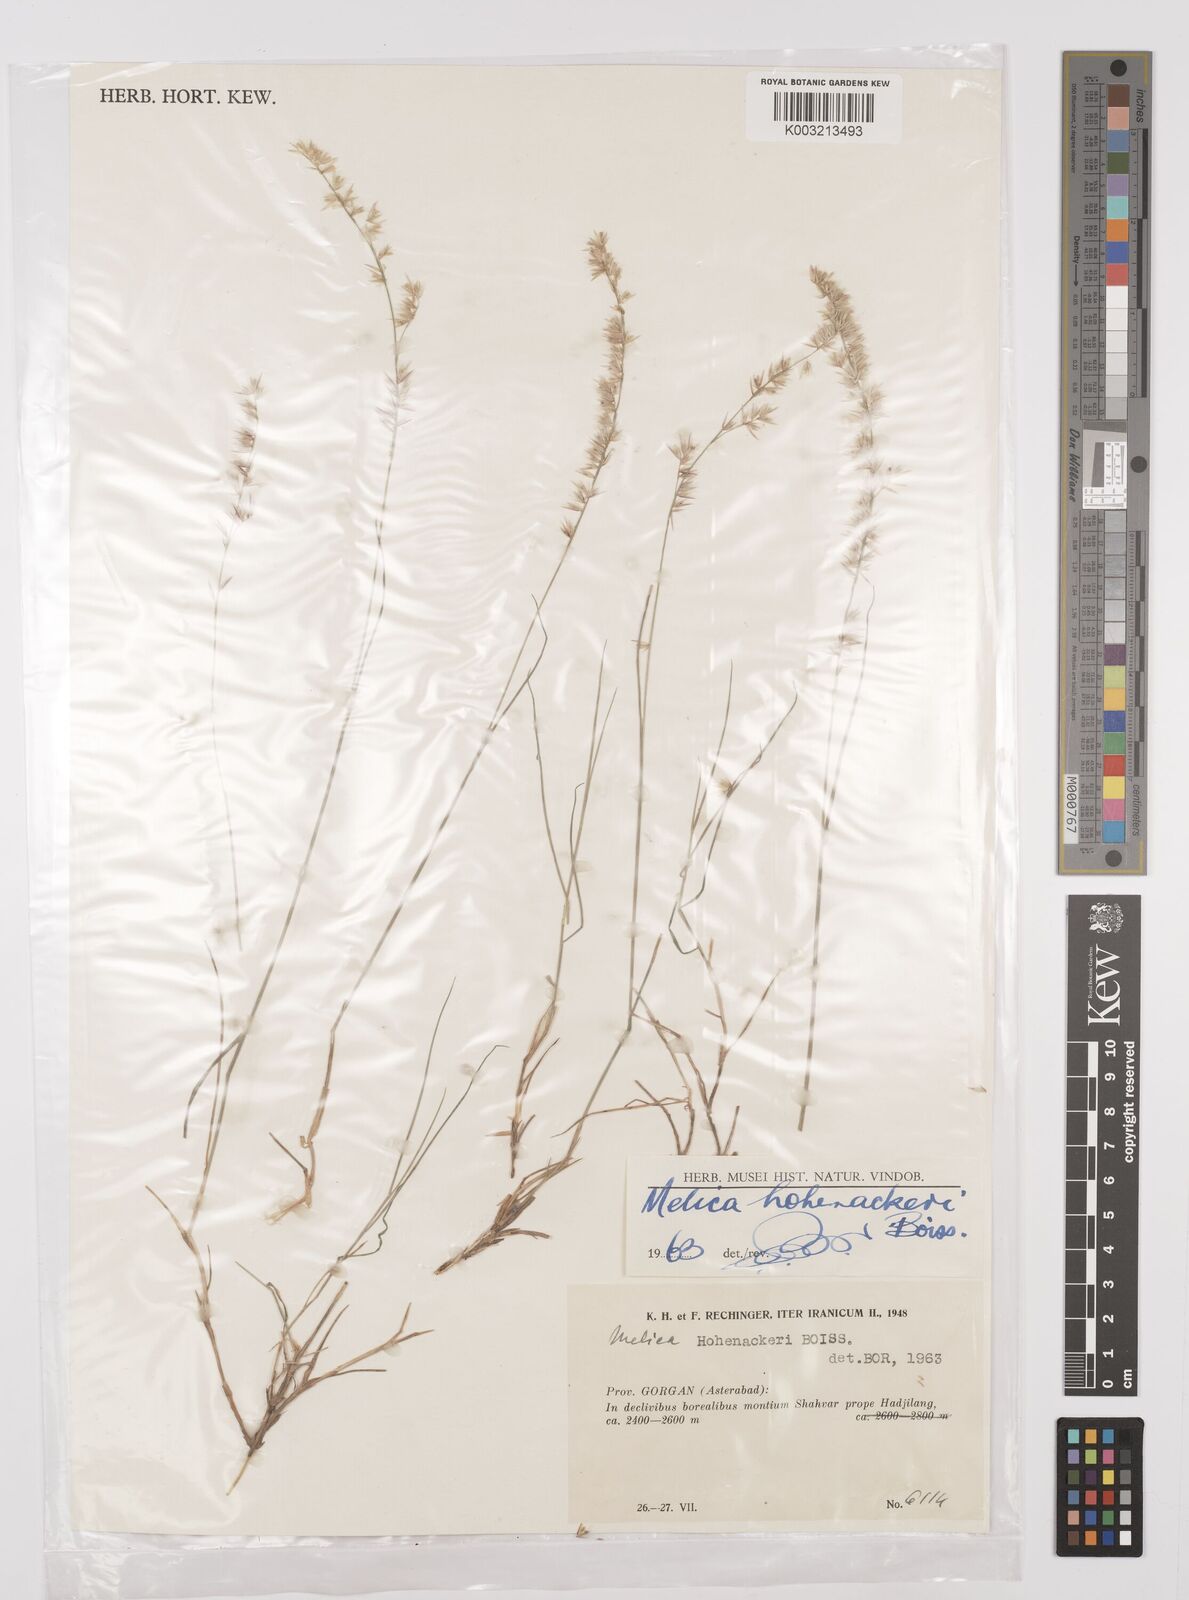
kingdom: Plantae
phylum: Tracheophyta
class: Liliopsida
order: Poales
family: Poaceae
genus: Melica
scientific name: Melica persica
